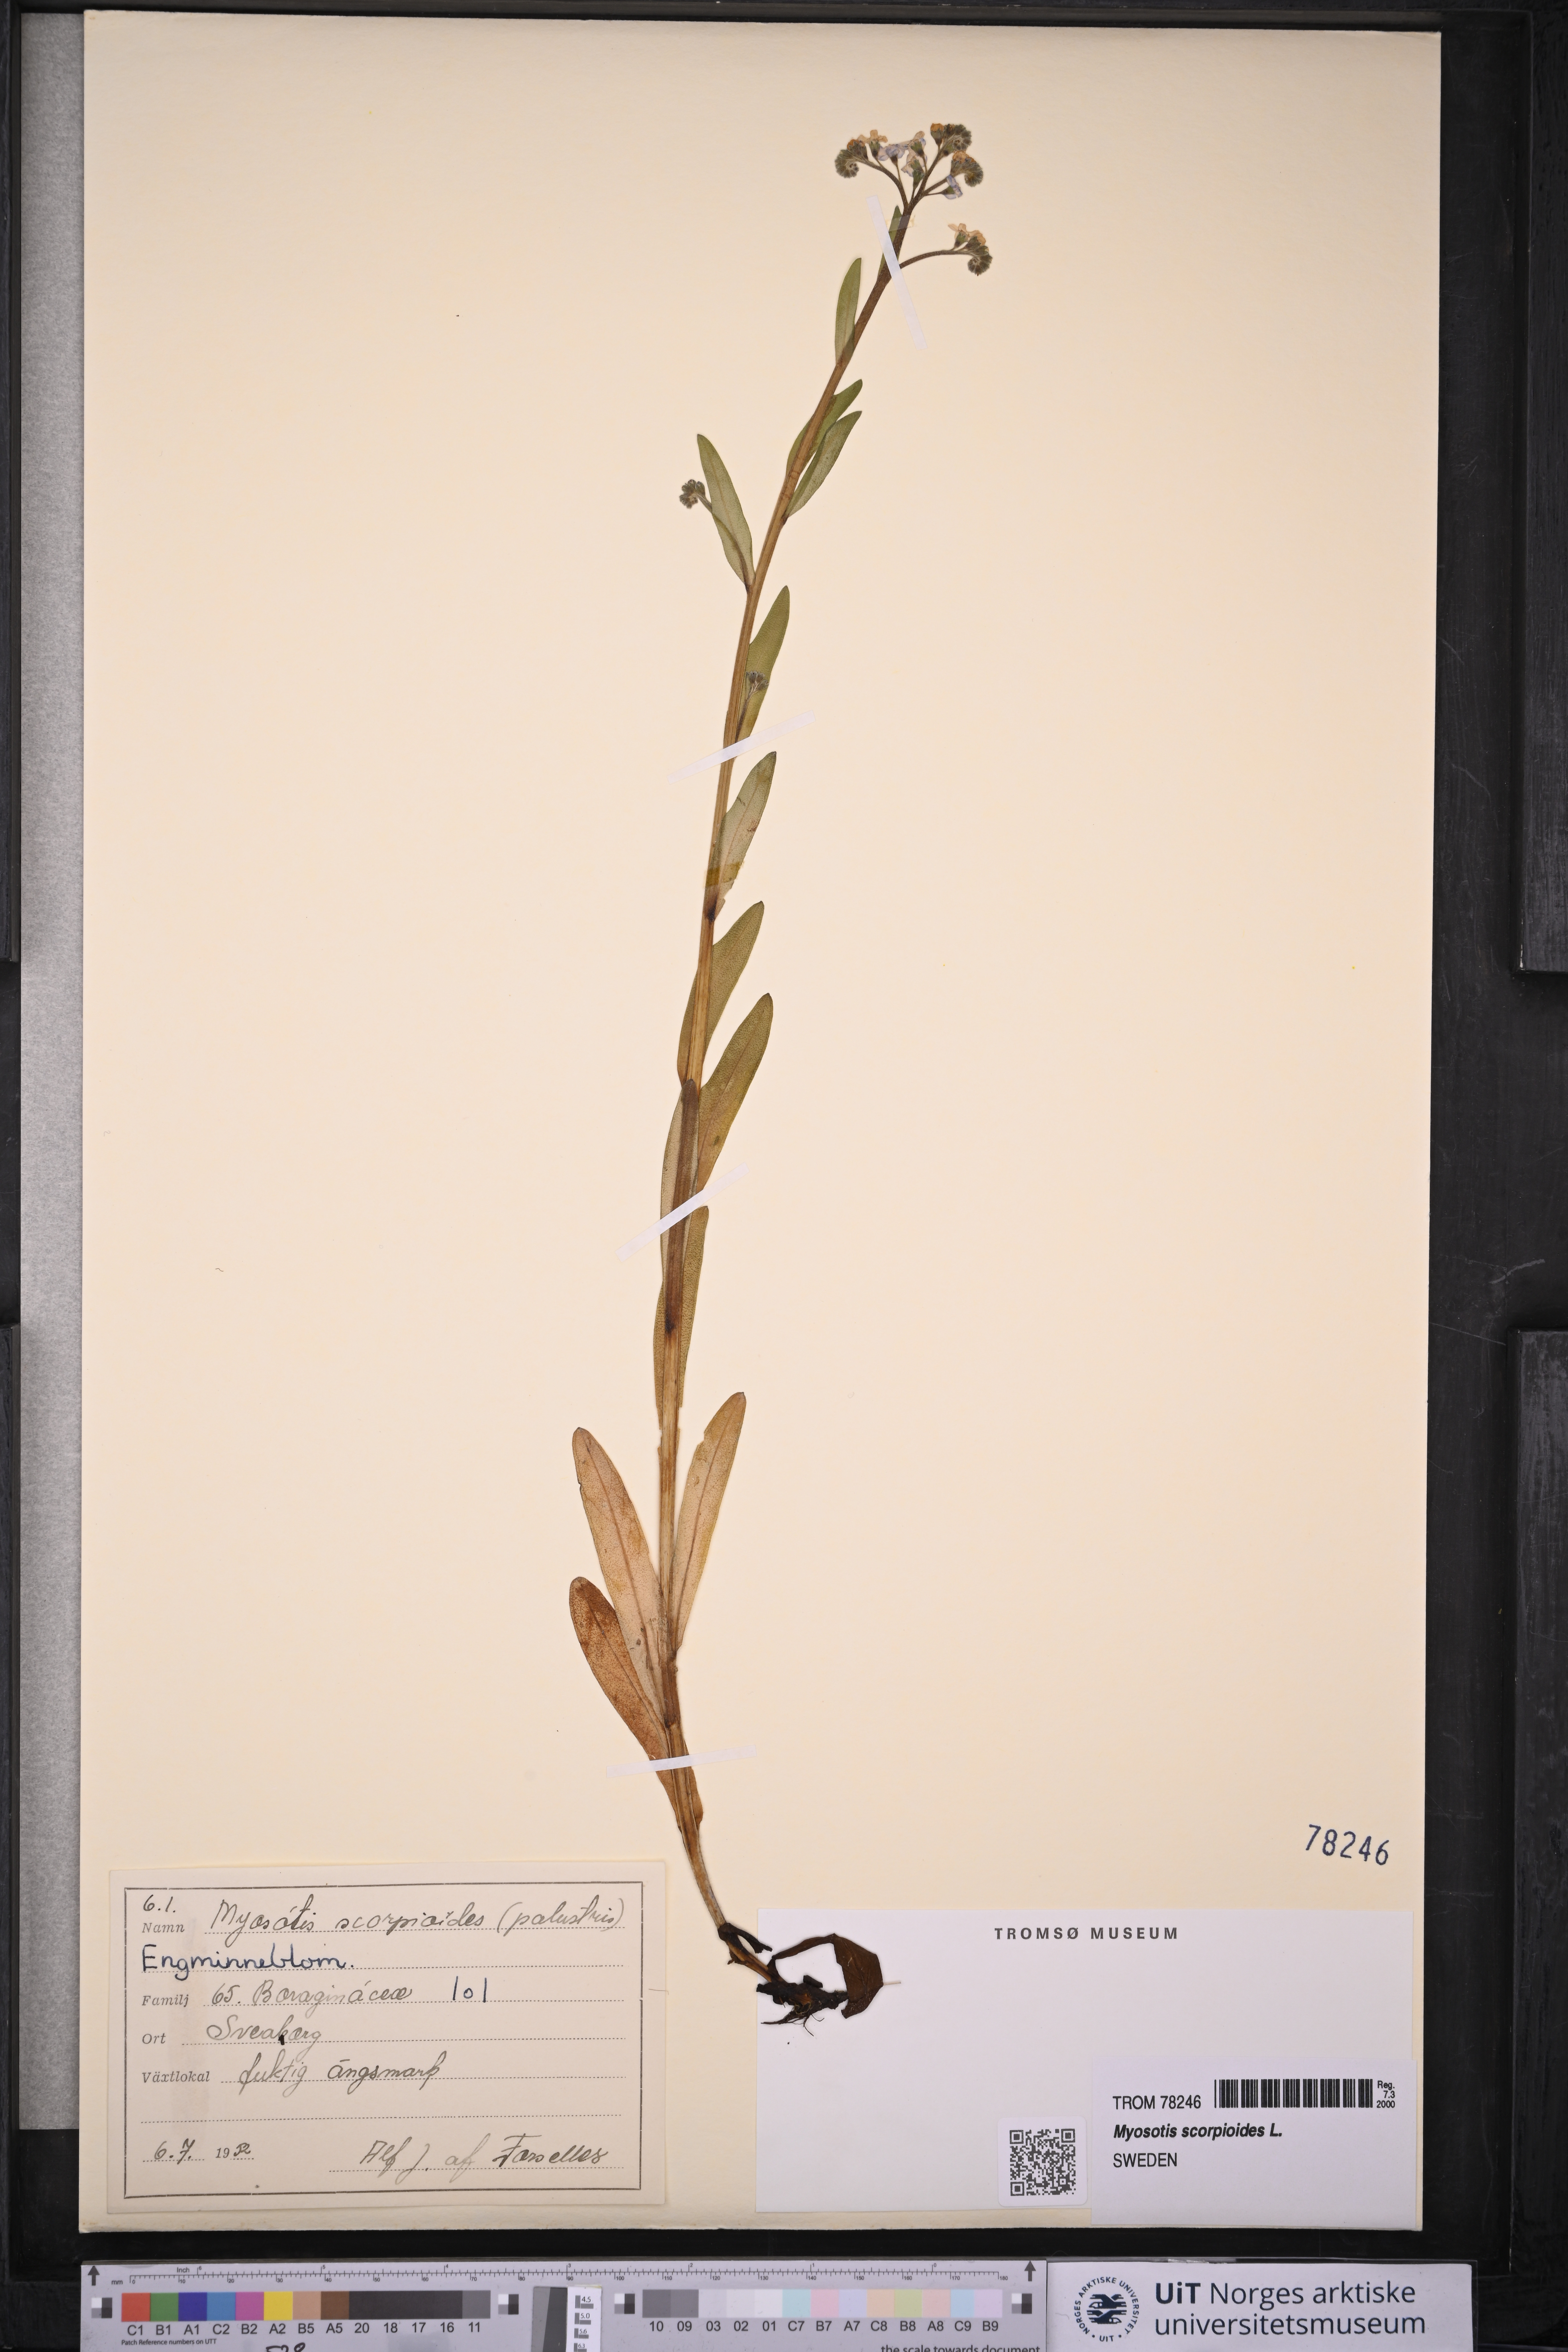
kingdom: Plantae
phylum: Tracheophyta
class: Magnoliopsida
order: Boraginales
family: Boraginaceae
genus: Myosotis
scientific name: Myosotis scorpioides
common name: Water forget-me-not
